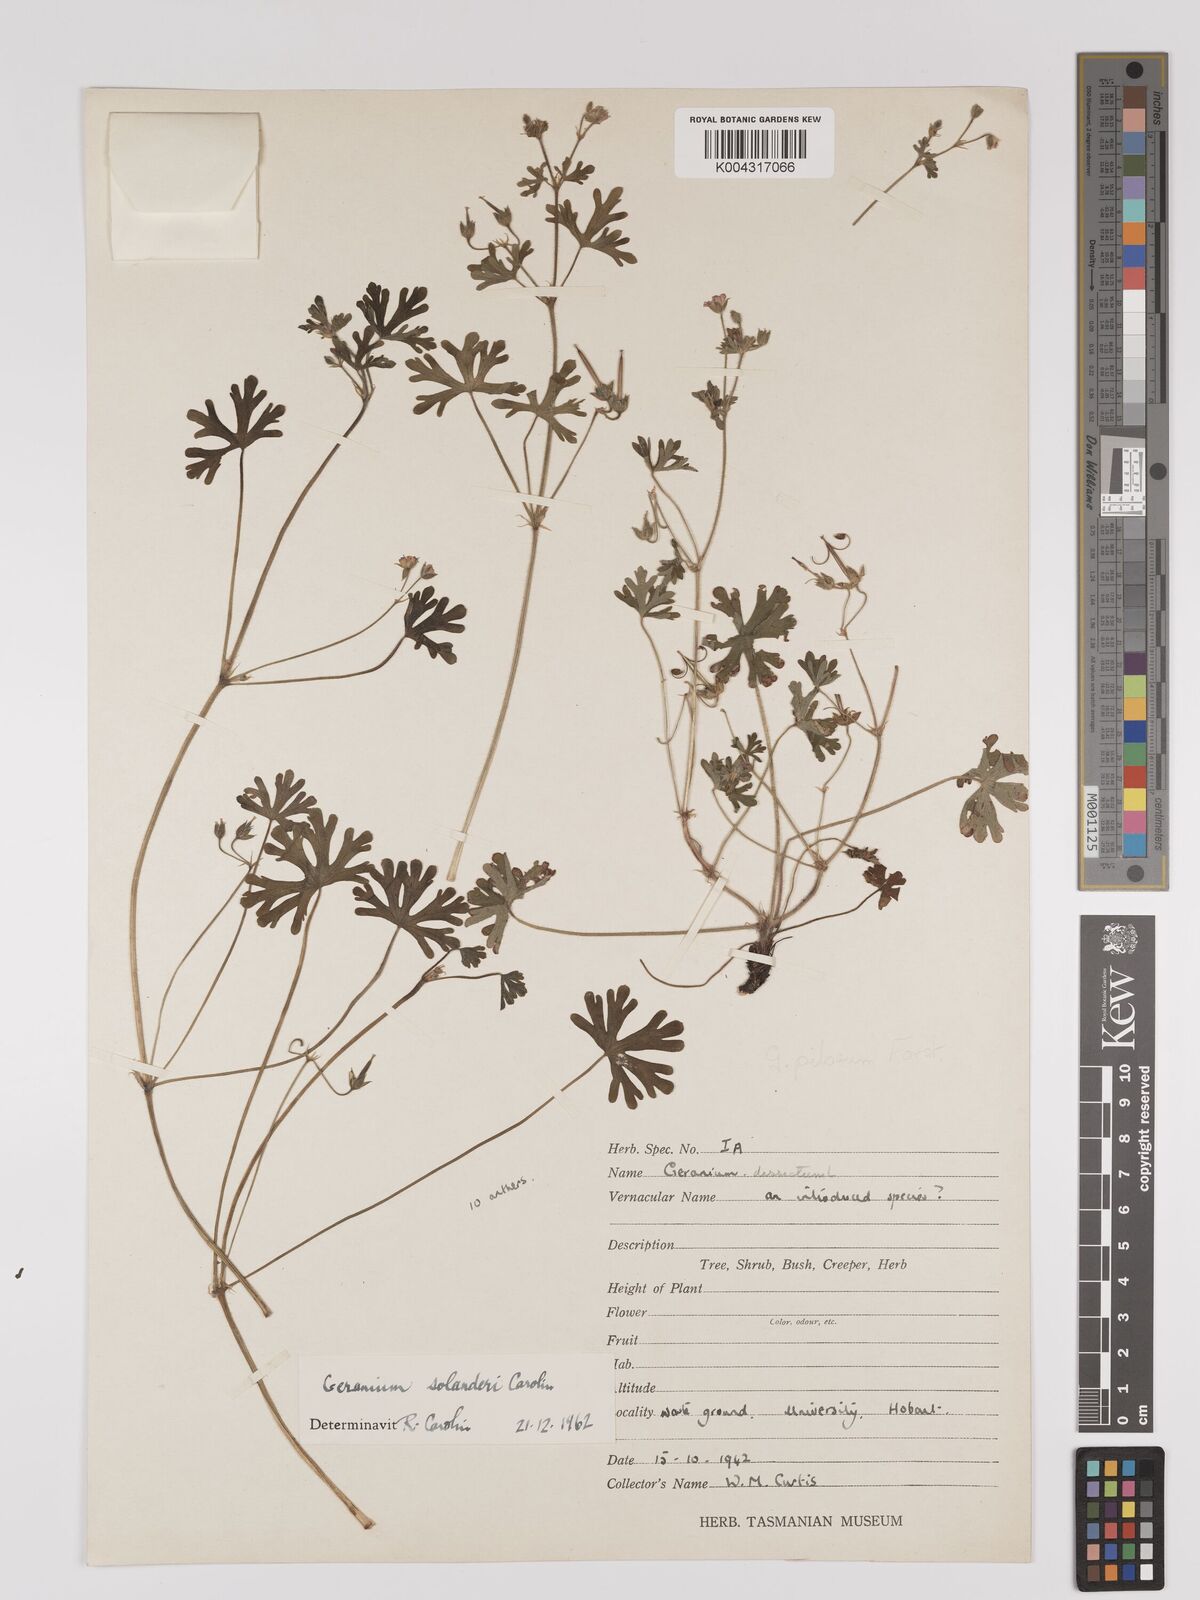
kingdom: Plantae
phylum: Tracheophyta
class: Magnoliopsida
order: Geraniales
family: Geraniaceae
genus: Geranium
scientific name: Geranium solanderi
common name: Solander's geranium
